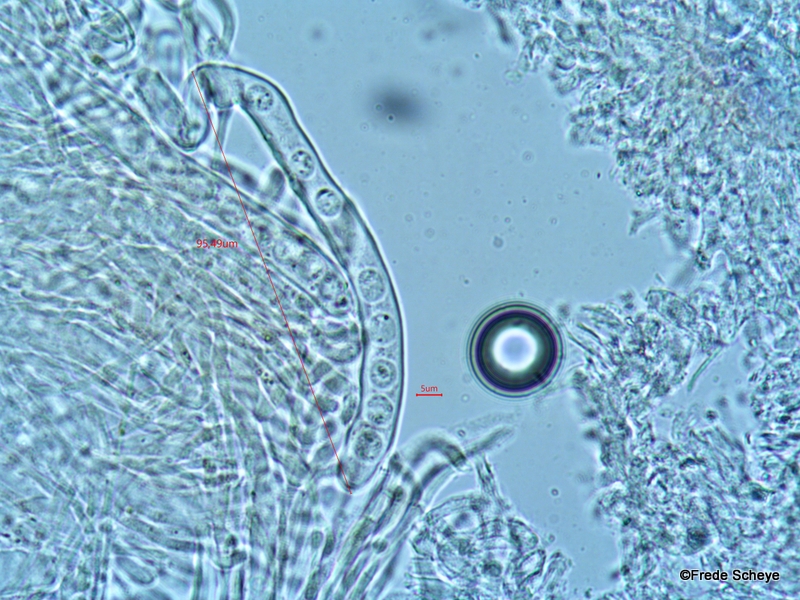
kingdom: Fungi
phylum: Ascomycota
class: Pezizomycetes
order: Pezizales
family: Sarcoscyphaceae
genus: Pithya
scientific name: Pithya cupressina
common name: lille dukatbæger
